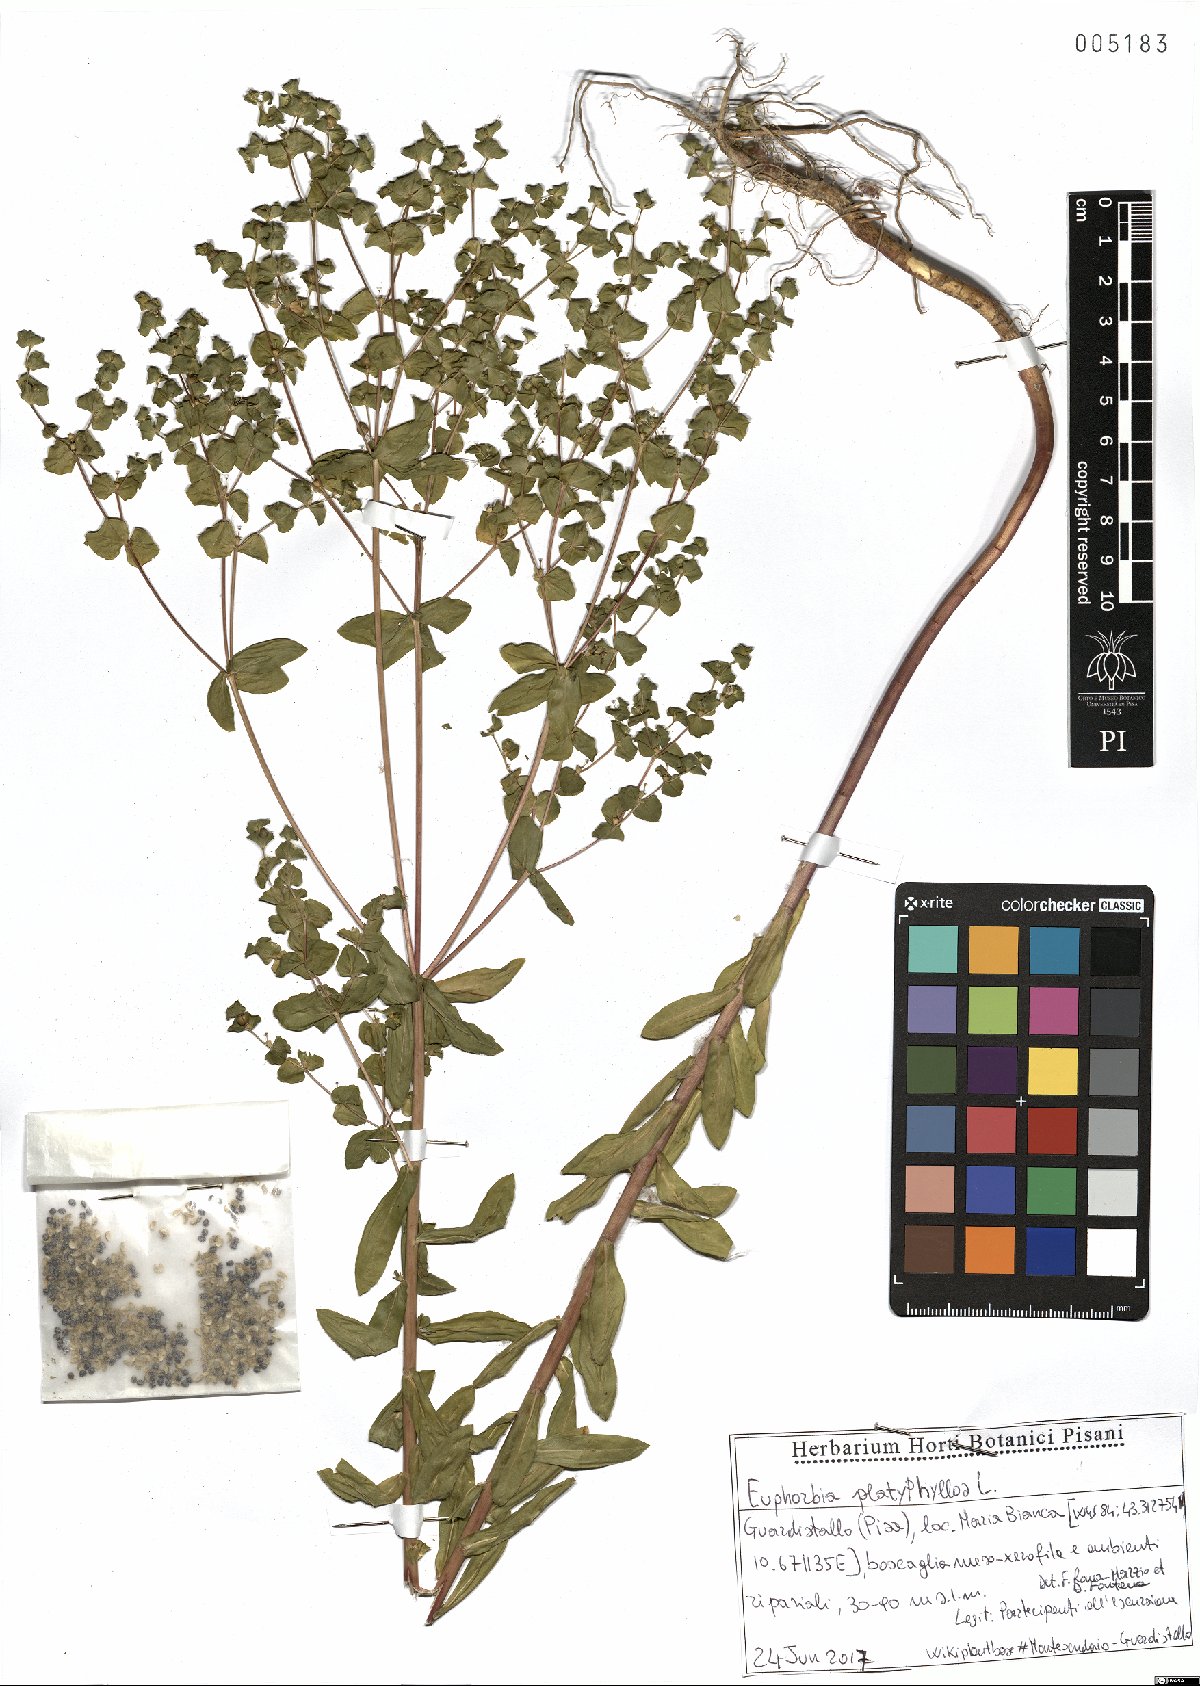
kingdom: Plantae
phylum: Tracheophyta
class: Magnoliopsida
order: Malpighiales
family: Euphorbiaceae
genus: Euphorbia
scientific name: Euphorbia platyphyllos
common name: Broad-leaved spurge
